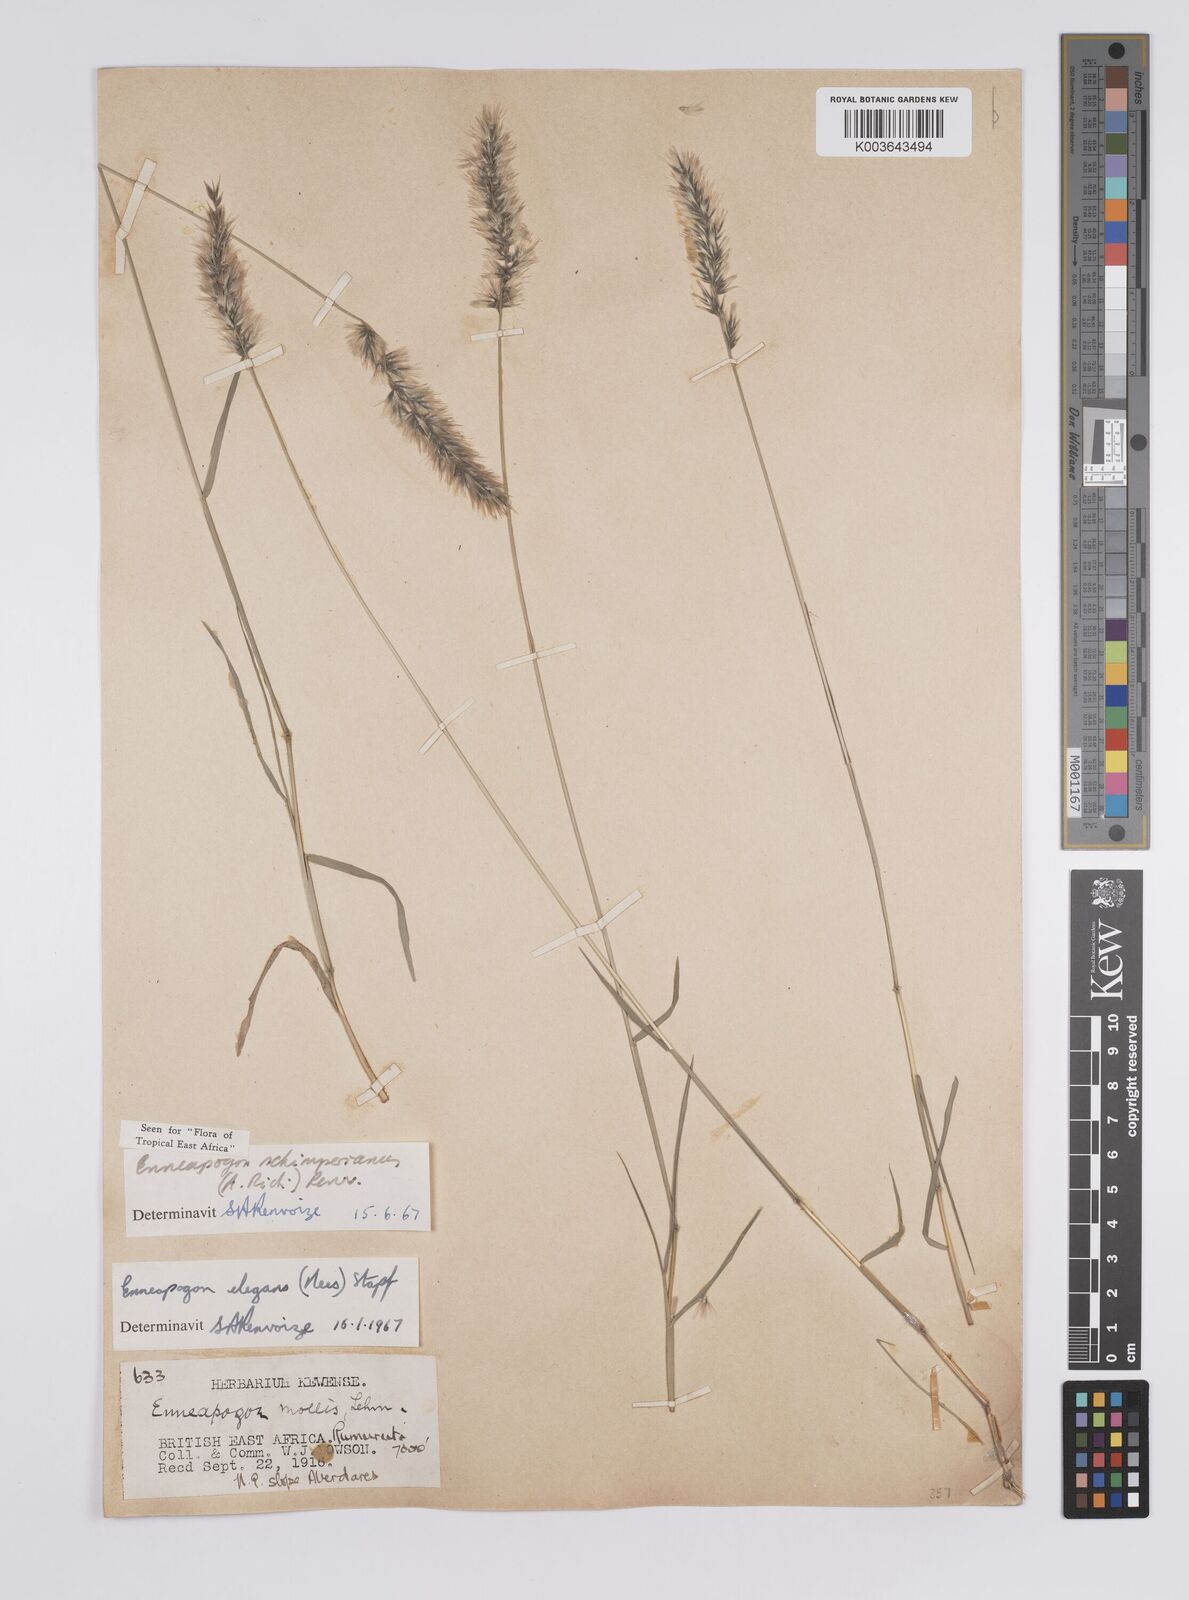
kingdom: Plantae
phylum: Tracheophyta
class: Liliopsida
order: Poales
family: Poaceae
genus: Enneapogon
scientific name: Enneapogon persicus
